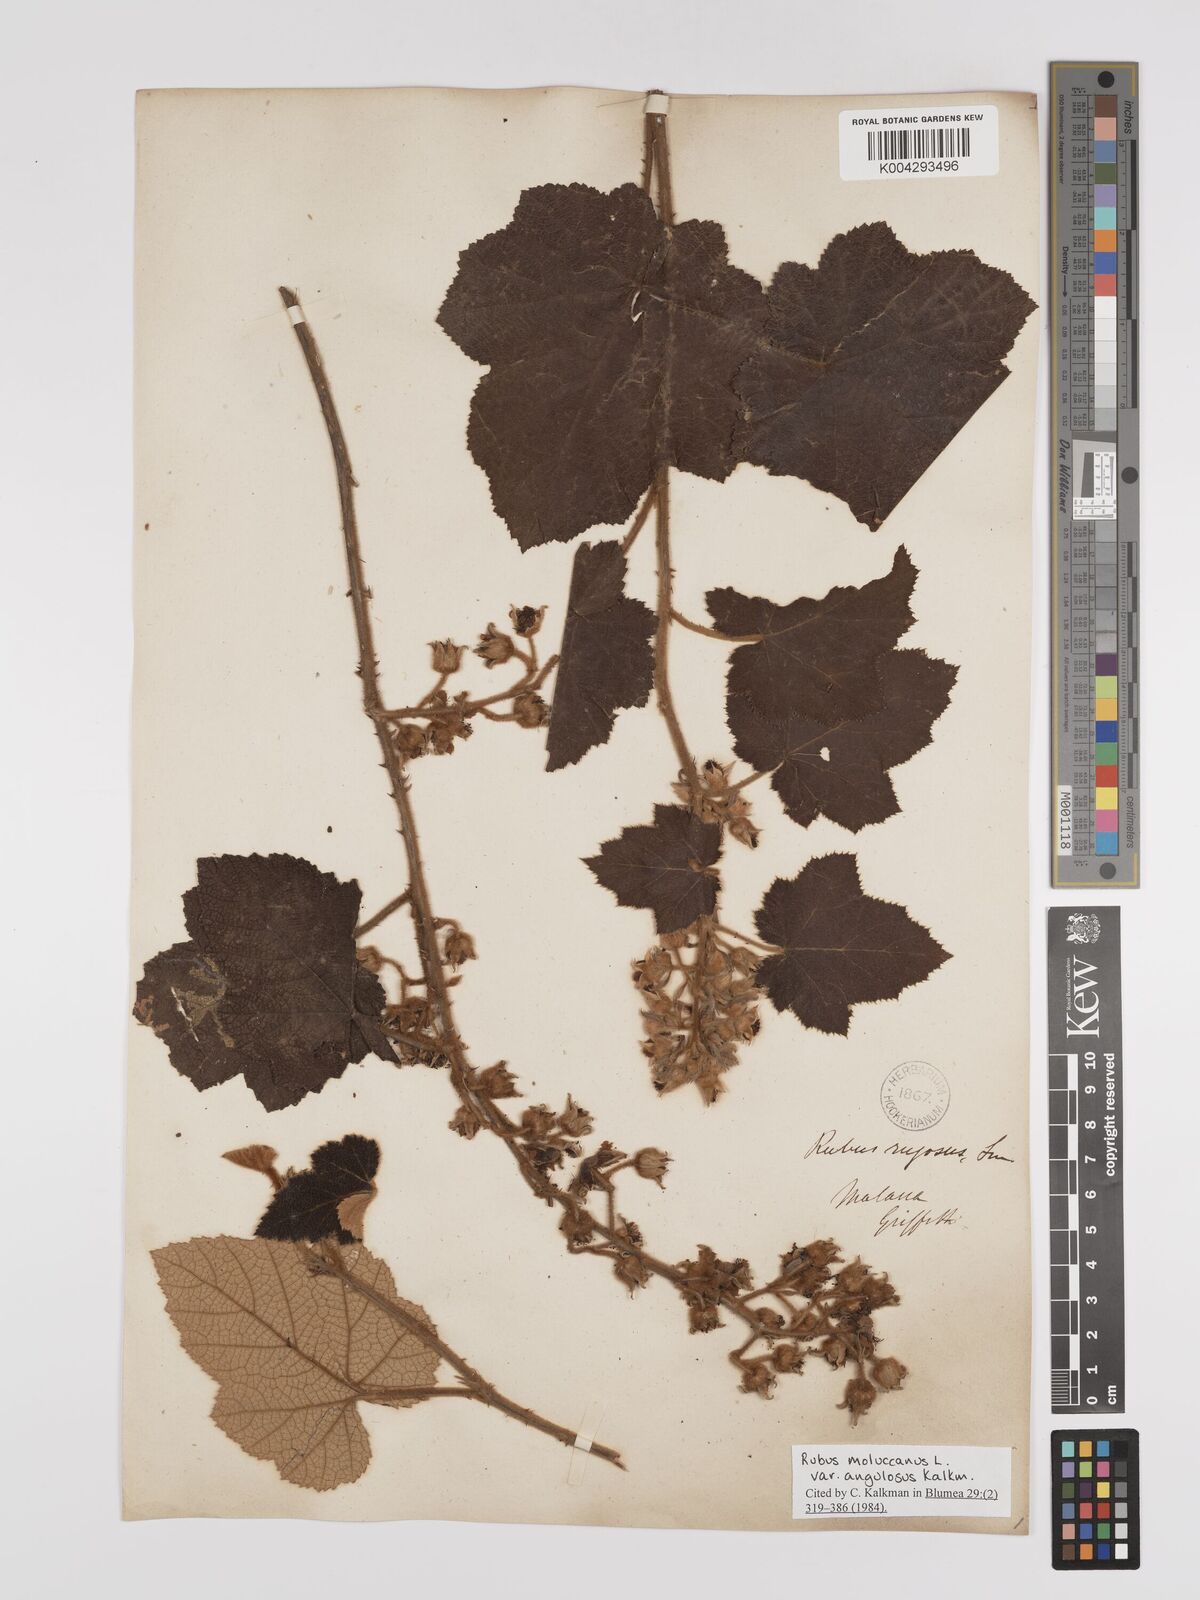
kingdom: Plantae
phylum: Tracheophyta
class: Magnoliopsida
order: Rosales
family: Rosaceae
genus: Rubus
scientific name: Rubus moluccanus
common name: Wild raspberry
